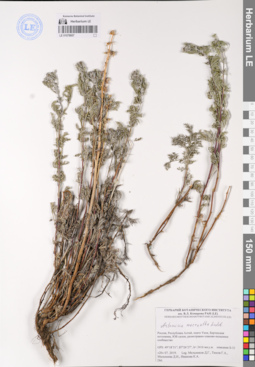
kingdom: Plantae
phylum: Tracheophyta
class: Magnoliopsida
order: Asterales
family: Asteraceae
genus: Artemisia
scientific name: Artemisia macrantha
